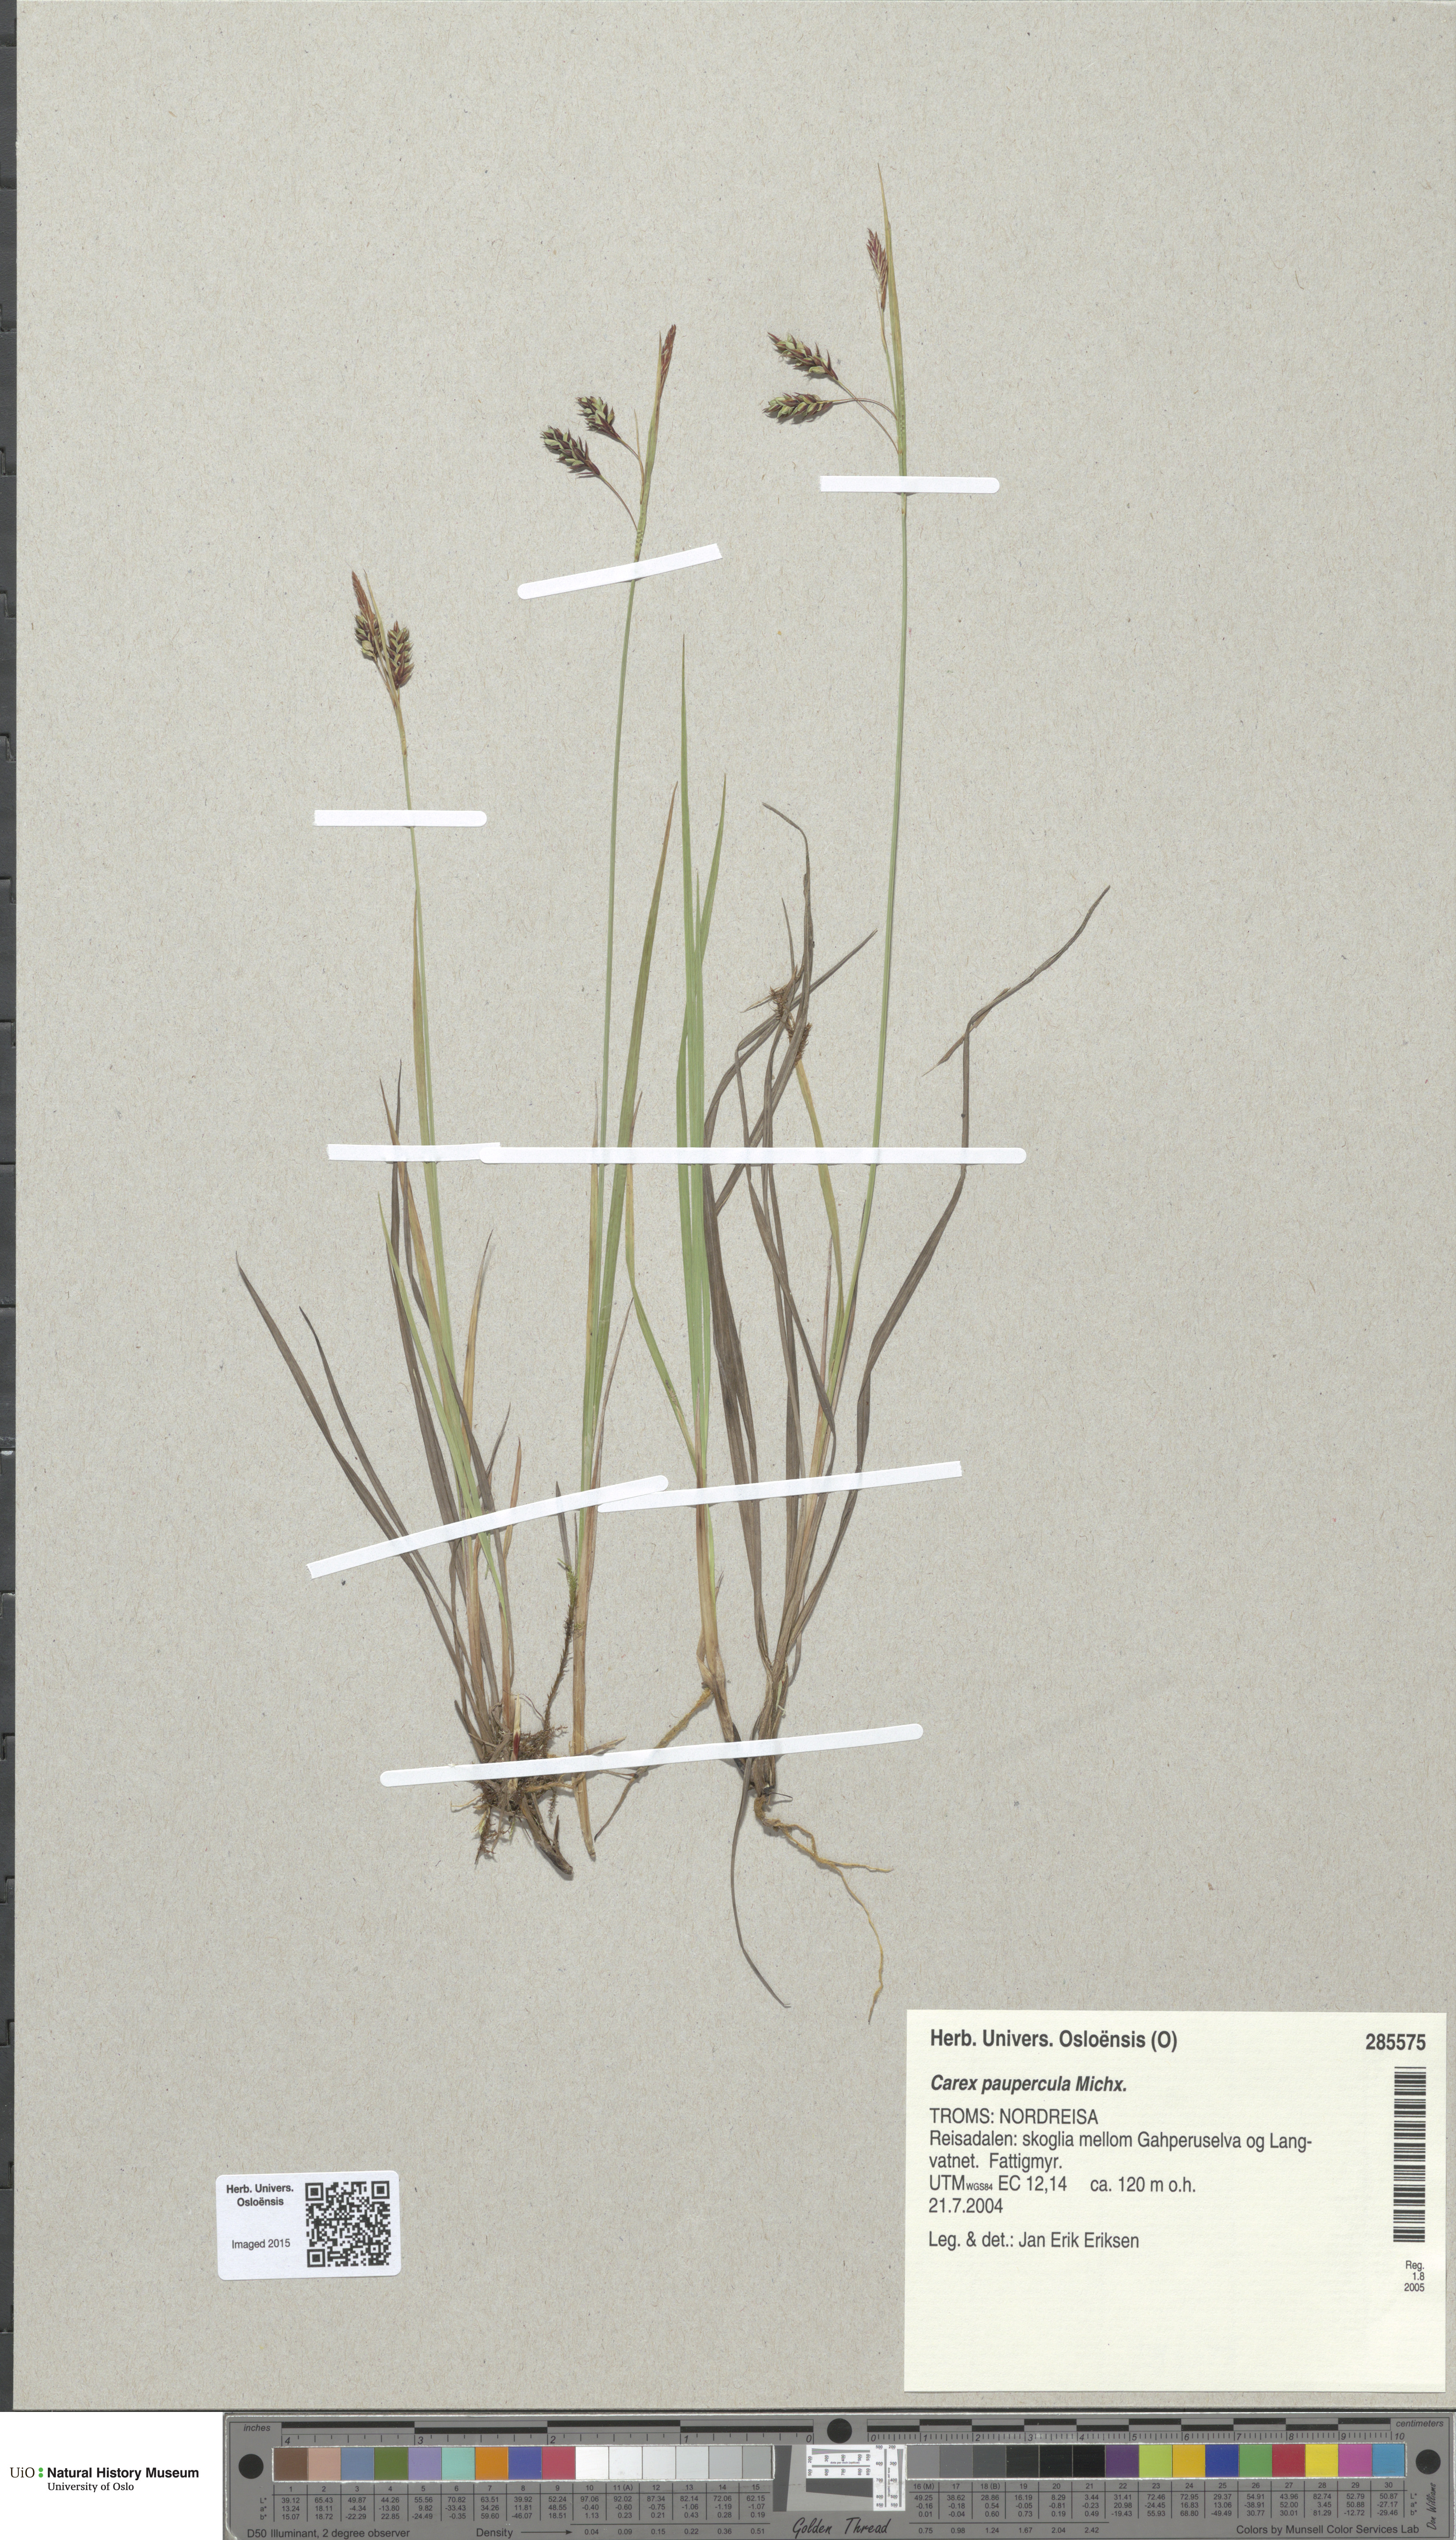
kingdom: Plantae
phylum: Tracheophyta
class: Liliopsida
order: Poales
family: Cyperaceae
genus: Carex
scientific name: Carex magellanica
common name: Bog sedge
